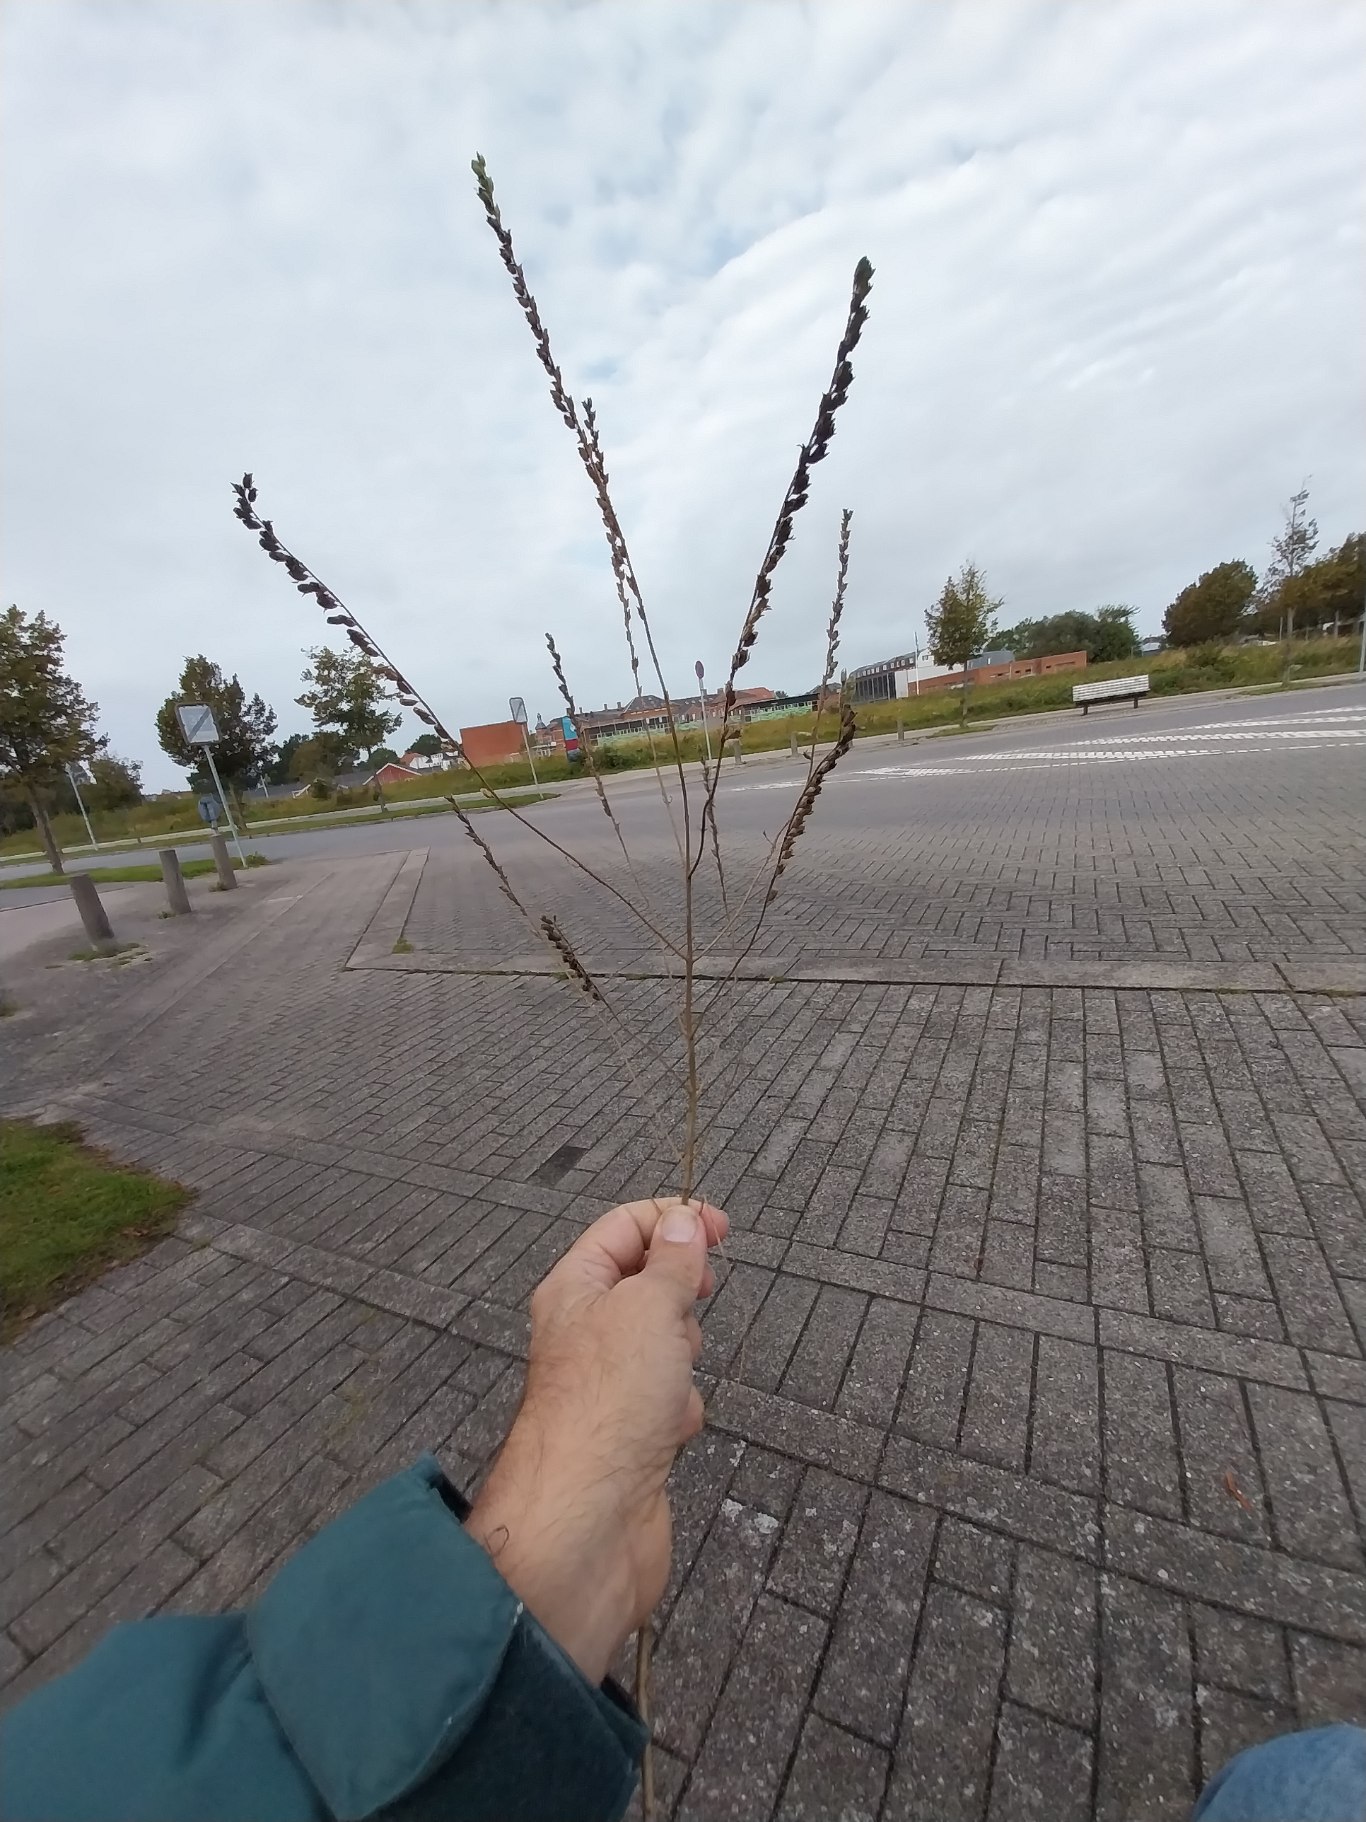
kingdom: Plantae
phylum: Tracheophyta
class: Magnoliopsida
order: Lamiales
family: Orobanchaceae
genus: Odontites
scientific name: Odontites vulgaris
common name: Høst-rødtop
